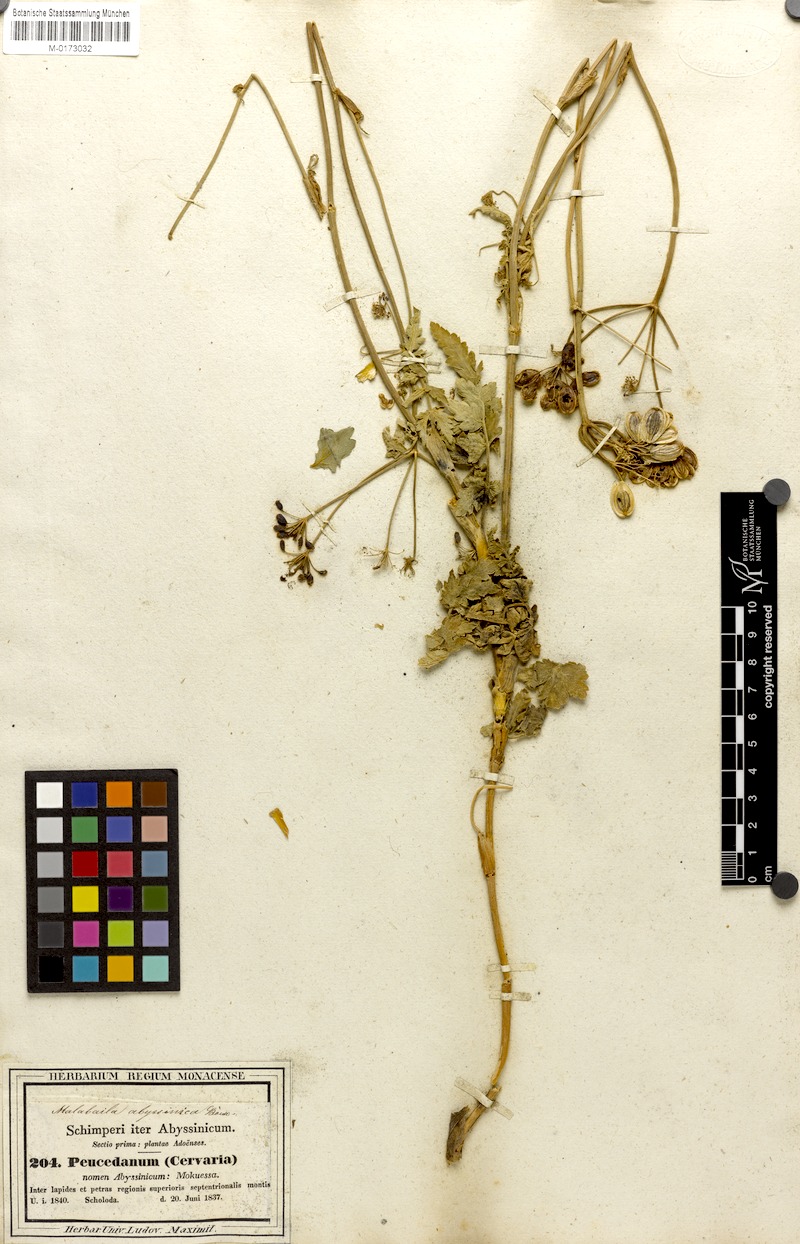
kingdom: Plantae
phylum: Tracheophyta
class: Magnoliopsida
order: Apiales
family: Apiaceae
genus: Heracleum
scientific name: Heracleum abyssinicum
